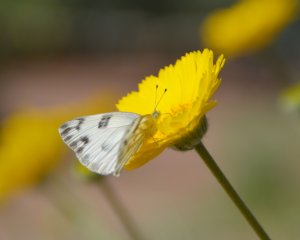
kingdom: Animalia
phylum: Arthropoda
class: Insecta
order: Lepidoptera
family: Pieridae
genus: Pontia
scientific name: Pontia protodice
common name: Checkered White
